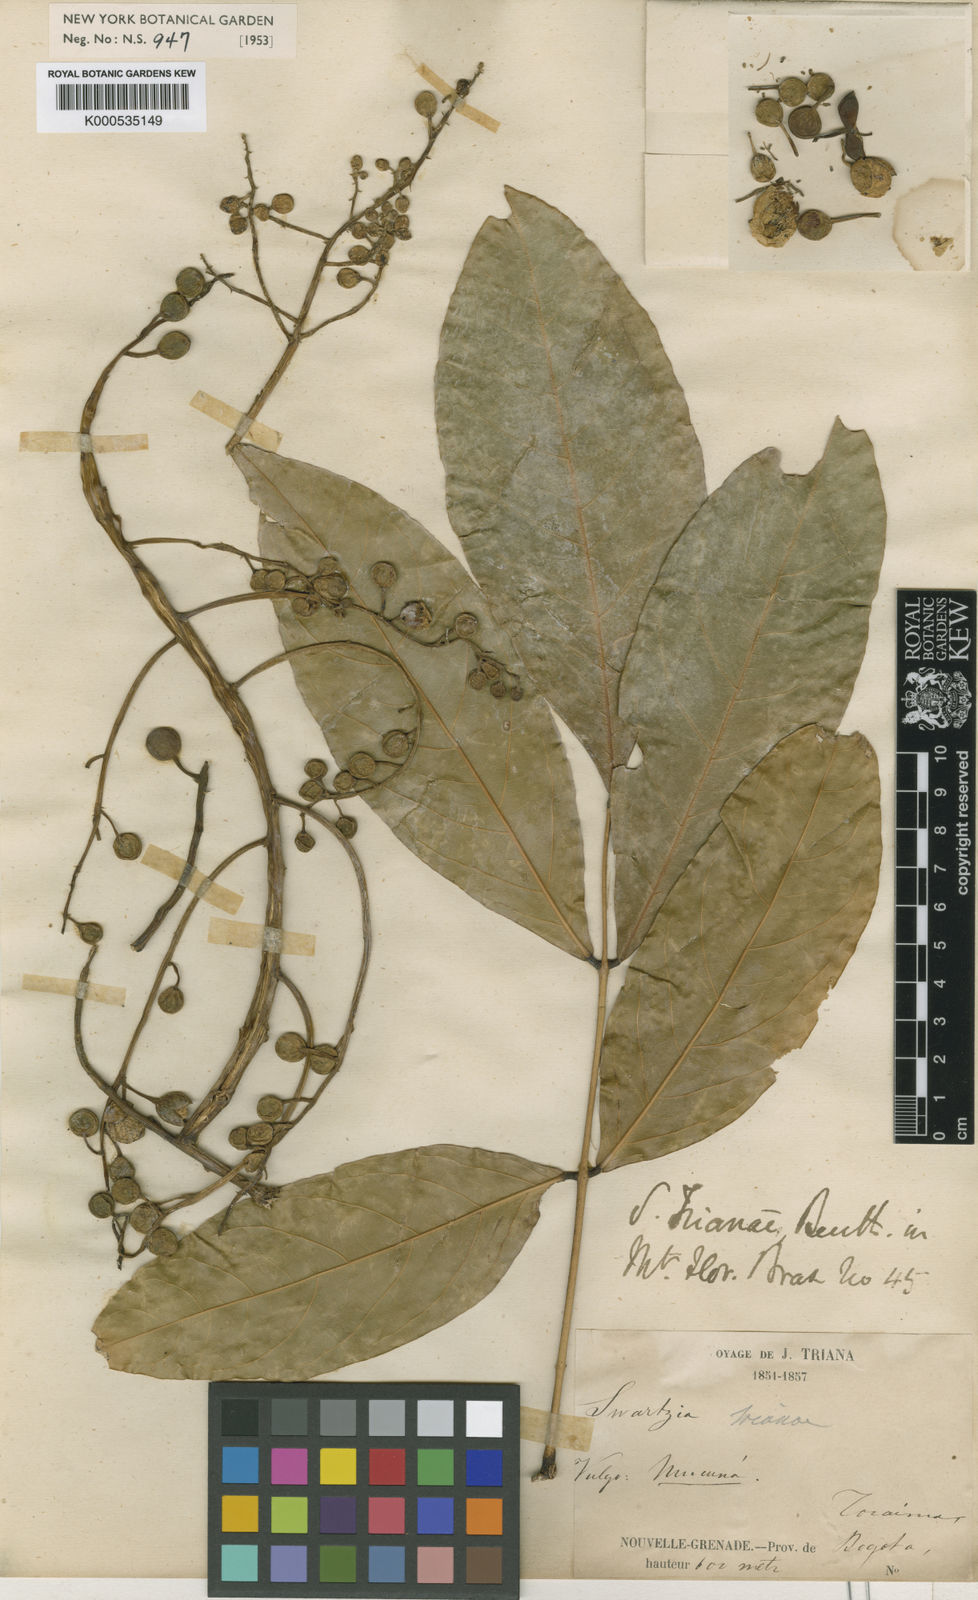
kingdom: Plantae
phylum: Tracheophyta
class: Magnoliopsida
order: Fabales
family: Fabaceae
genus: Swartzia
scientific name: Swartzia trianae
